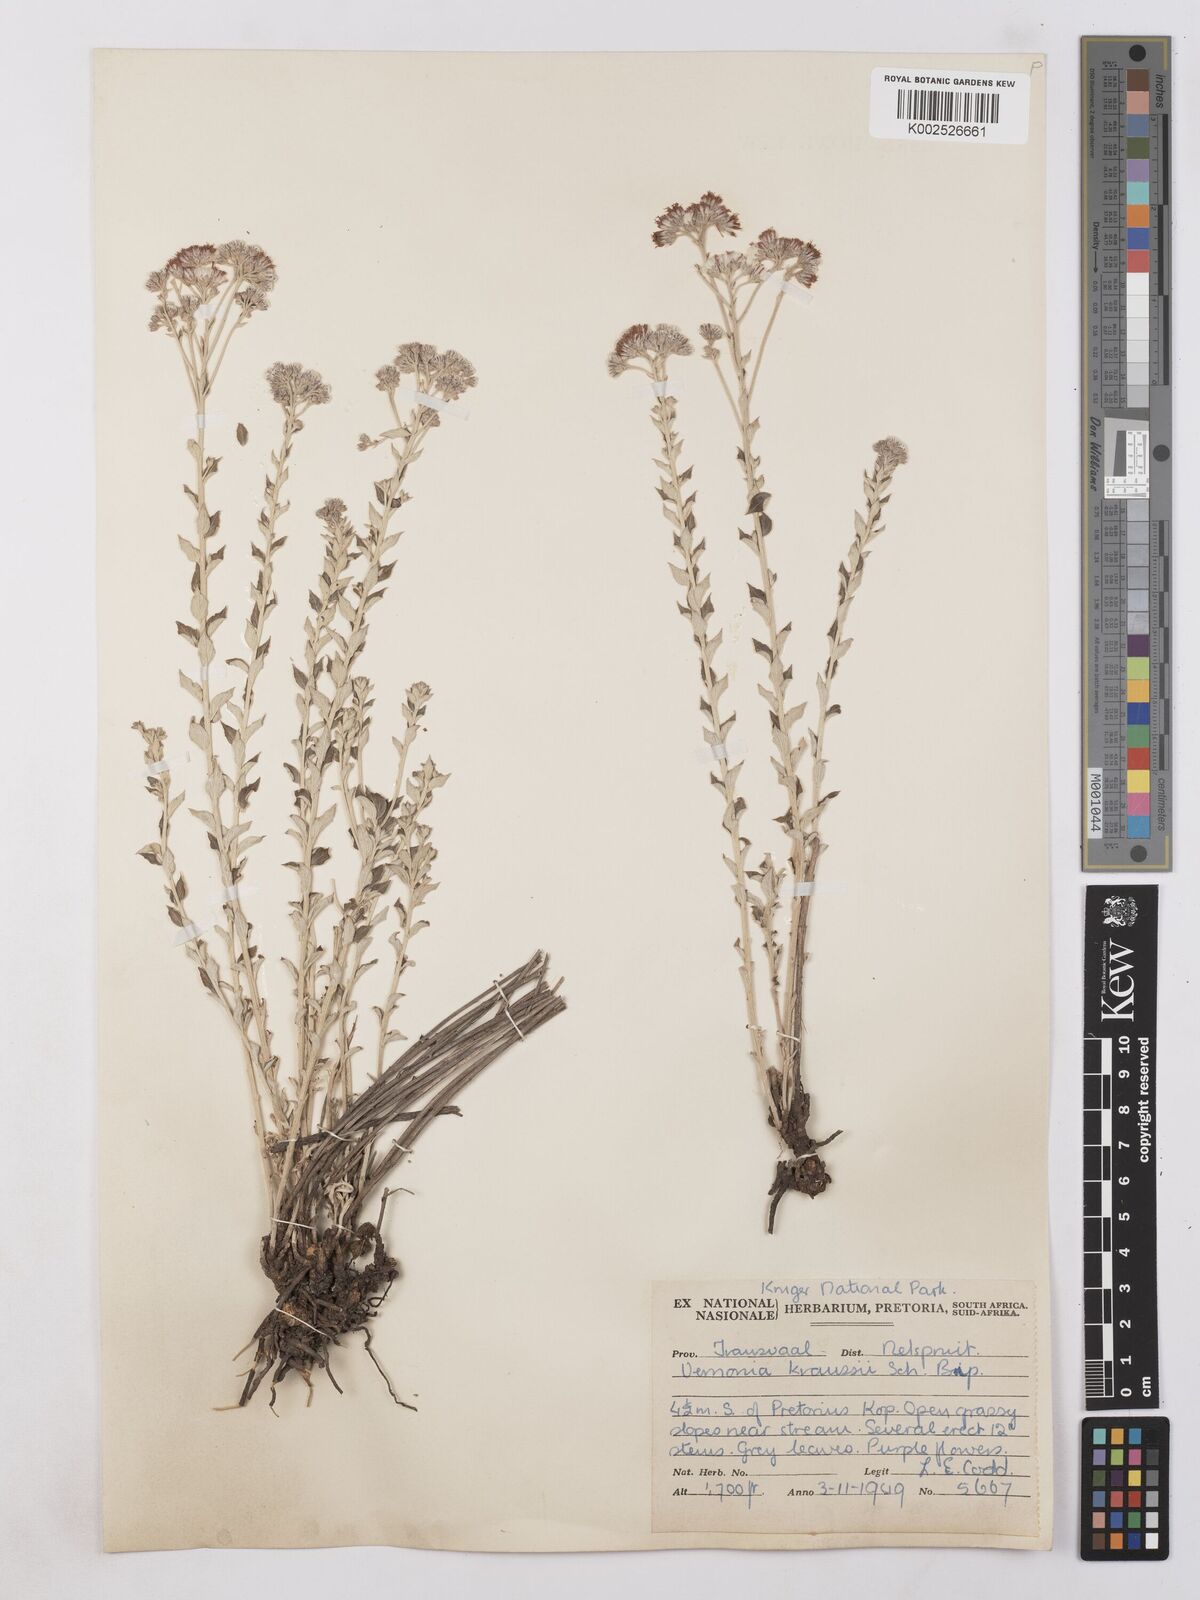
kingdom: Plantae
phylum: Tracheophyta
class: Magnoliopsida
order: Asterales
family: Asteraceae
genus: Hilliardiella
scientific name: Hilliardiella oligocephala
